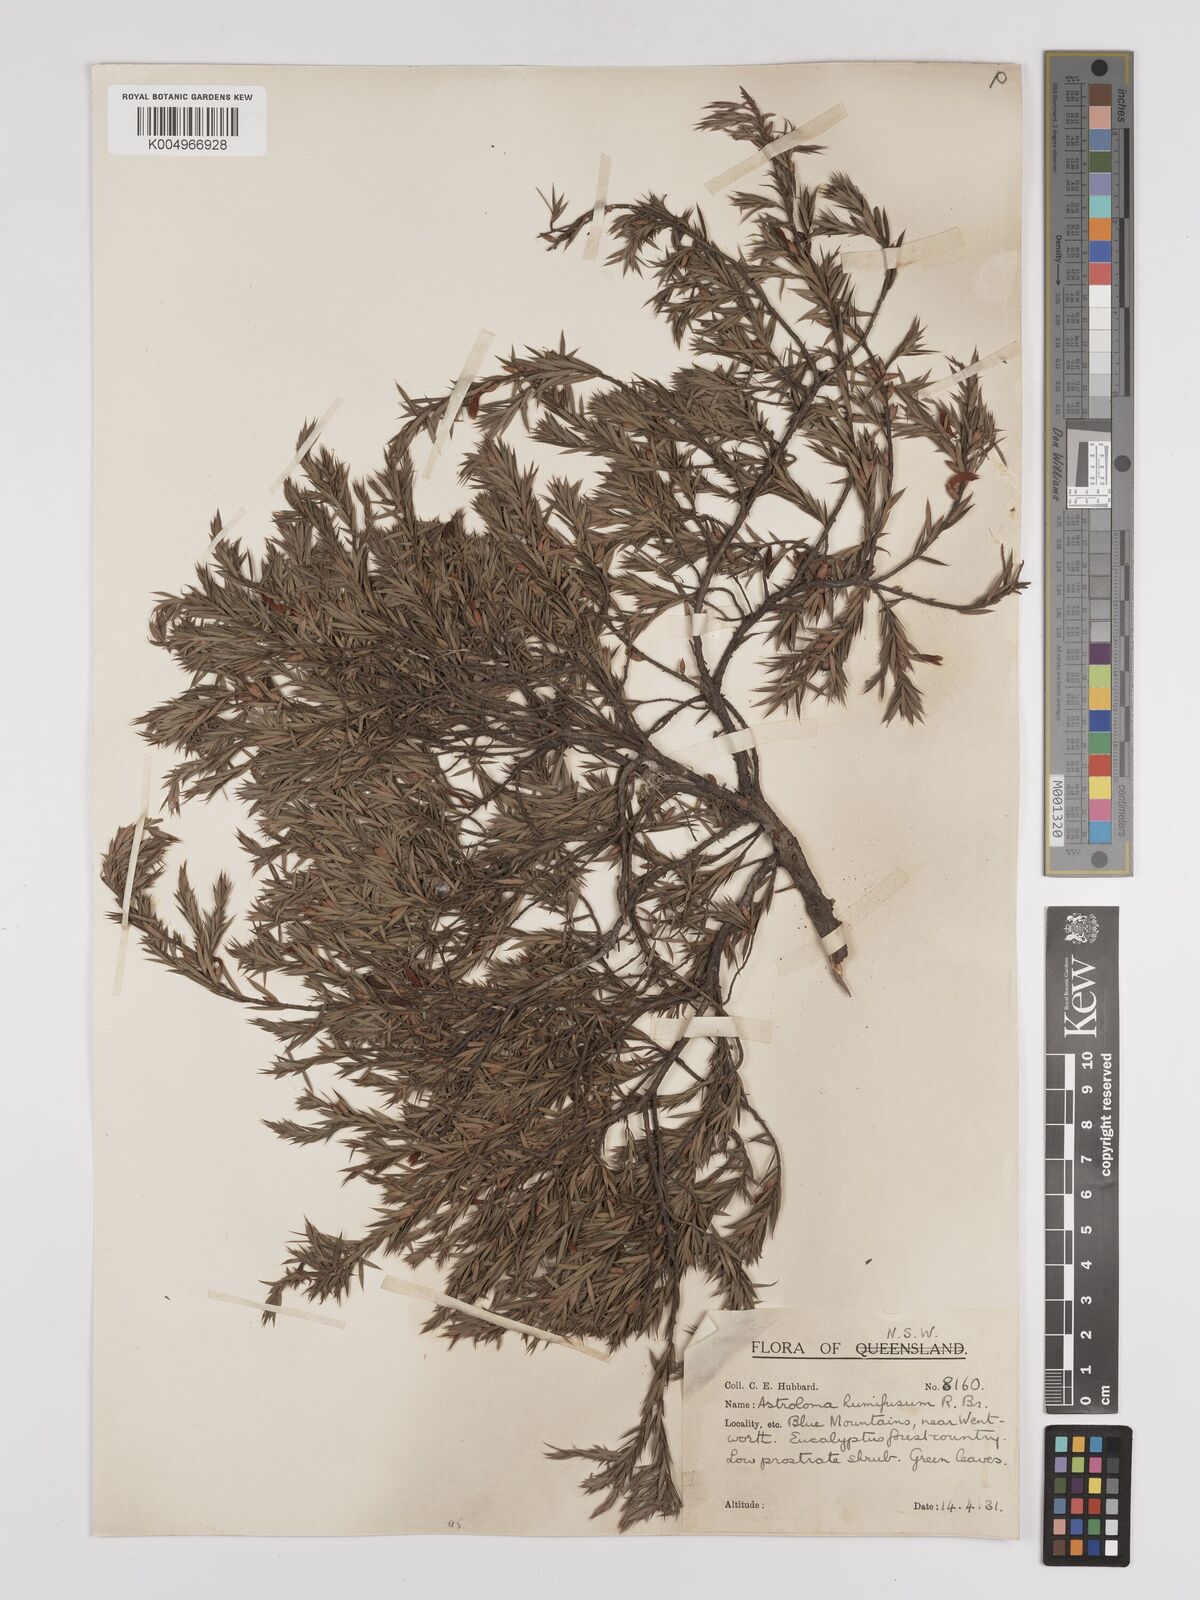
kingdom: Plantae
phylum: Tracheophyta
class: Magnoliopsida
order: Ericales
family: Ericaceae
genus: Styphelia
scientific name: Styphelia humifusa
